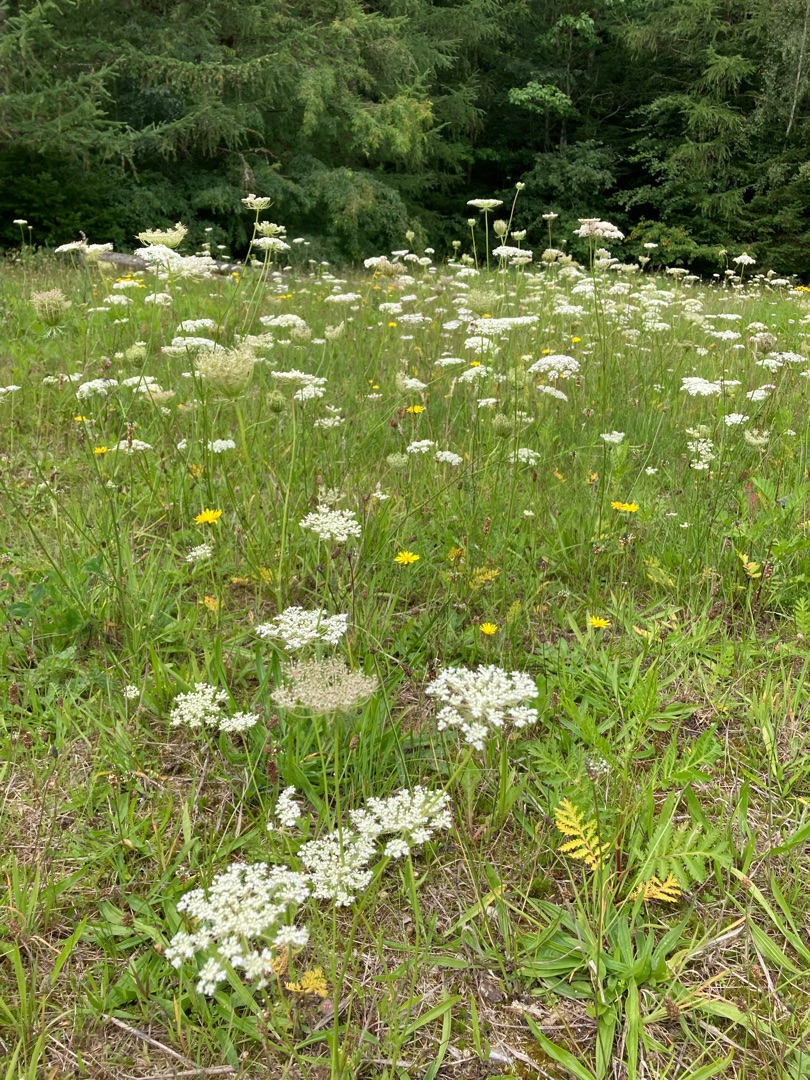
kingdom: Plantae
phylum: Tracheophyta
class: Magnoliopsida
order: Apiales
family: Apiaceae
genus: Daucus
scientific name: Daucus carota
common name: Gulerod
